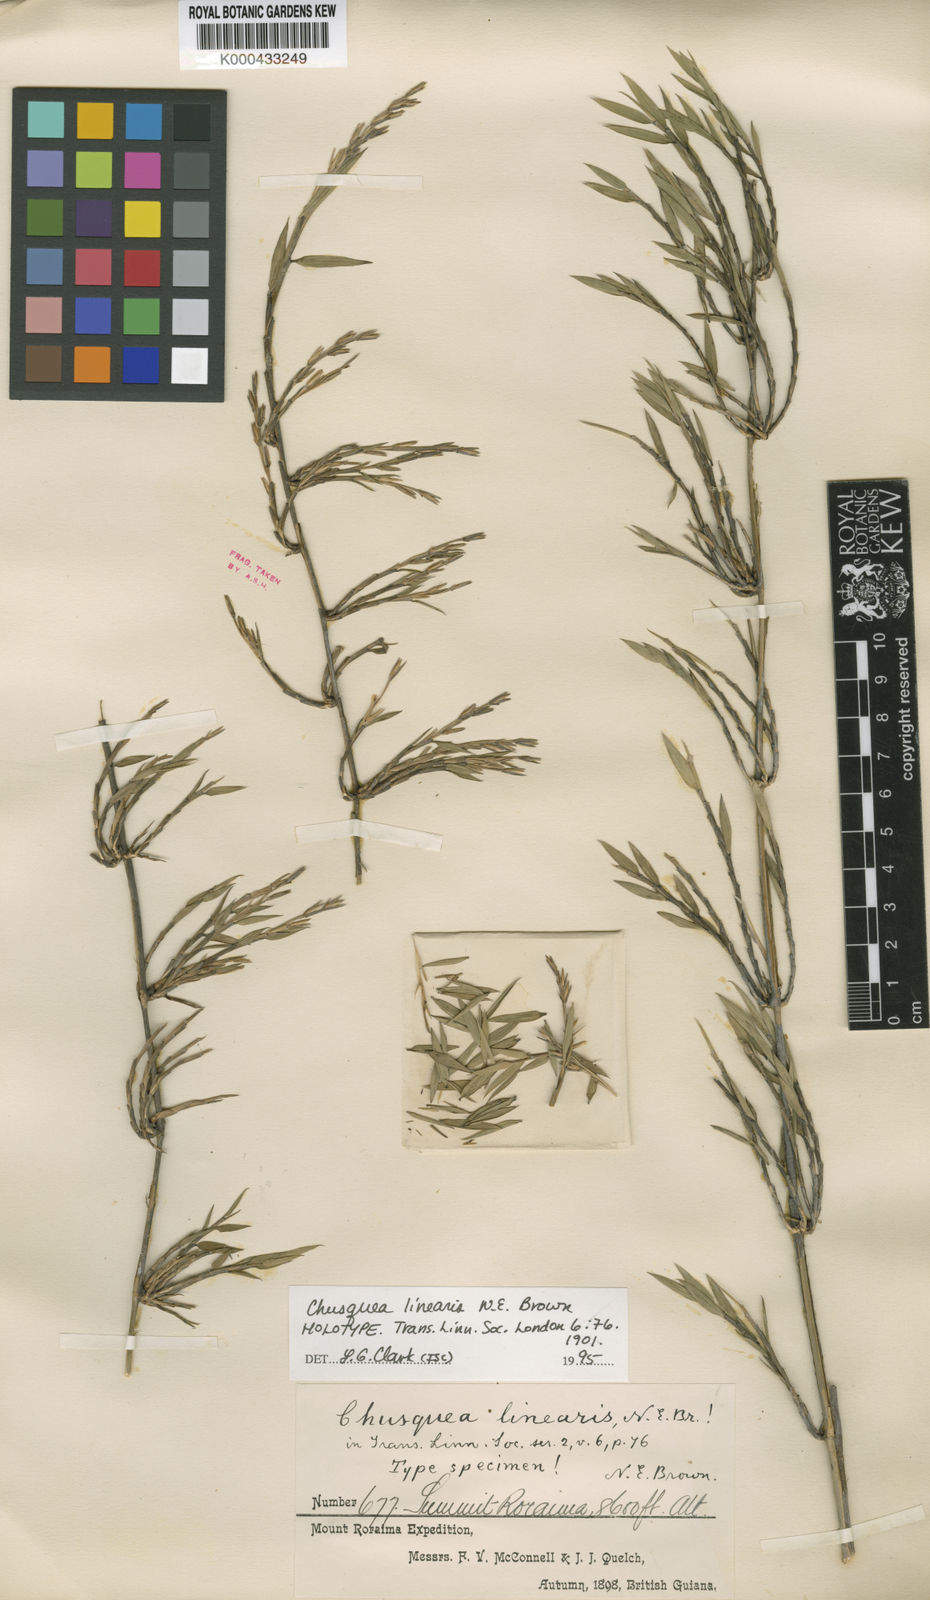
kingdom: Plantae
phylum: Tracheophyta
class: Liliopsida
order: Poales
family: Poaceae
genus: Chusquea
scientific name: Chusquea linearis
